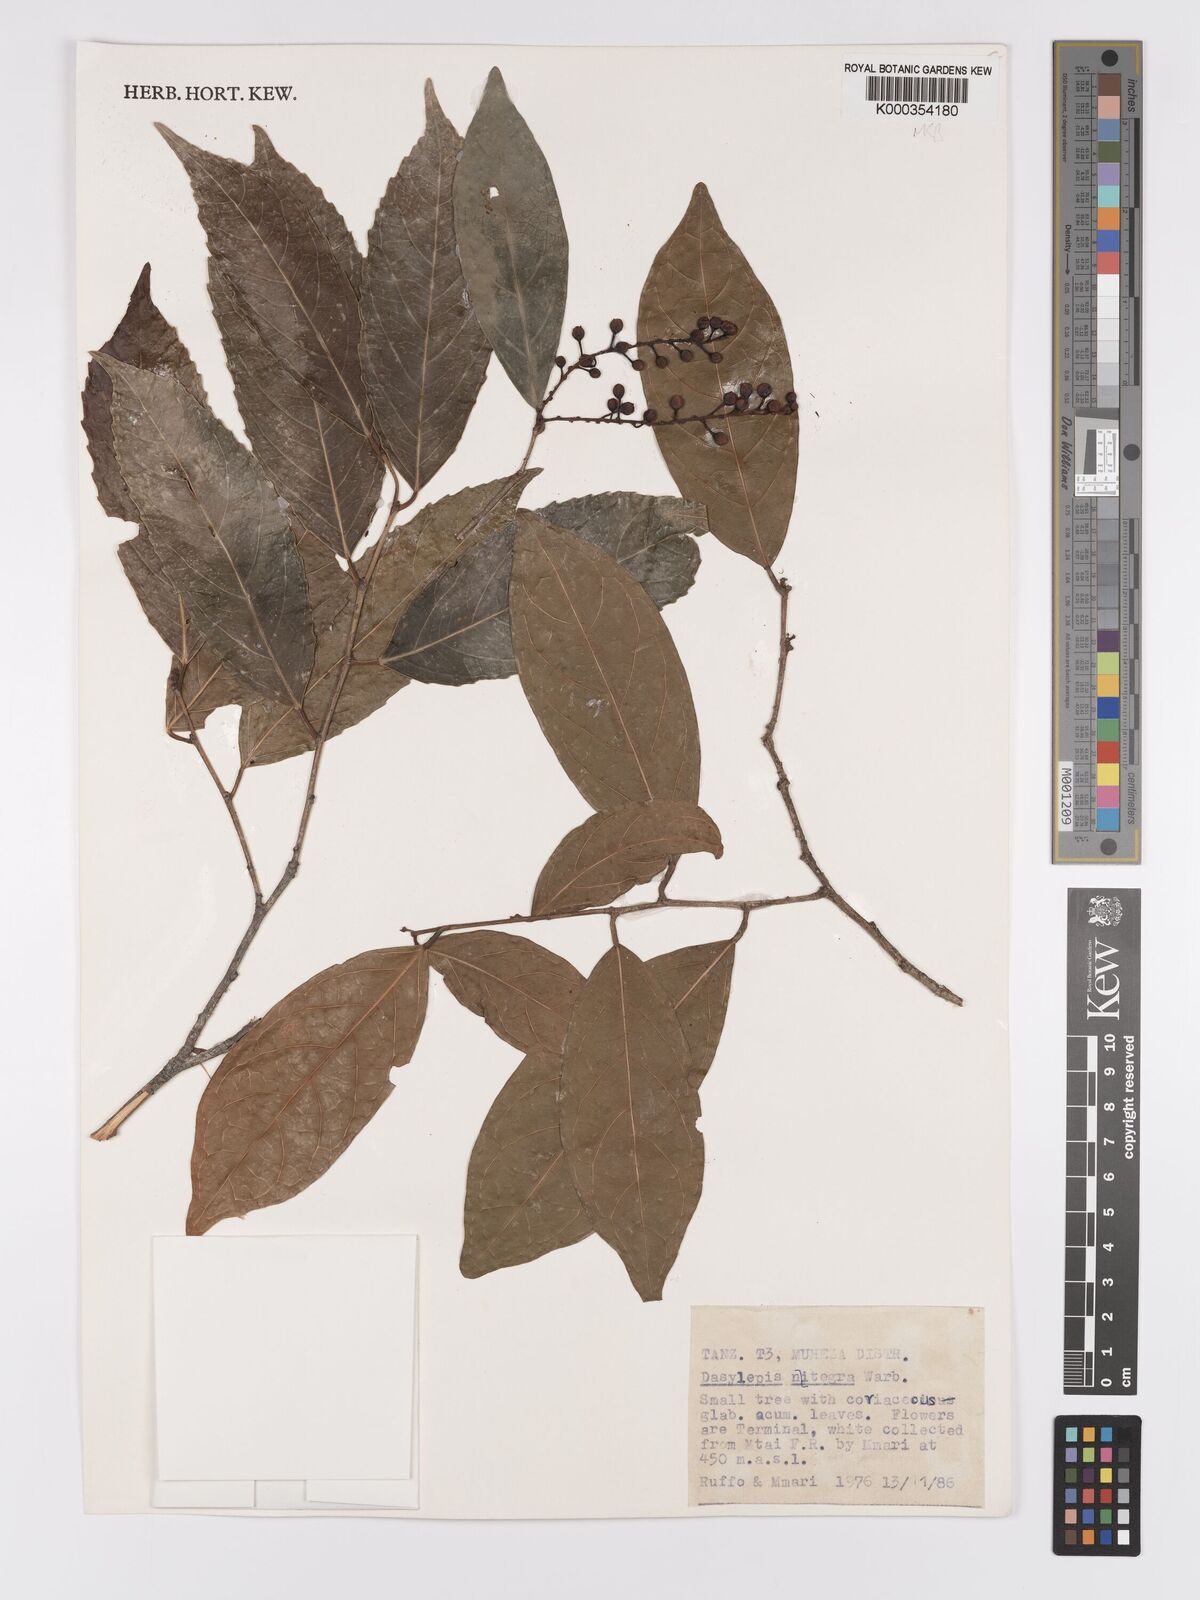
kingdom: Plantae
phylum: Tracheophyta
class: Magnoliopsida
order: Malpighiales
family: Achariaceae
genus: Dasylepis
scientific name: Dasylepis integra
